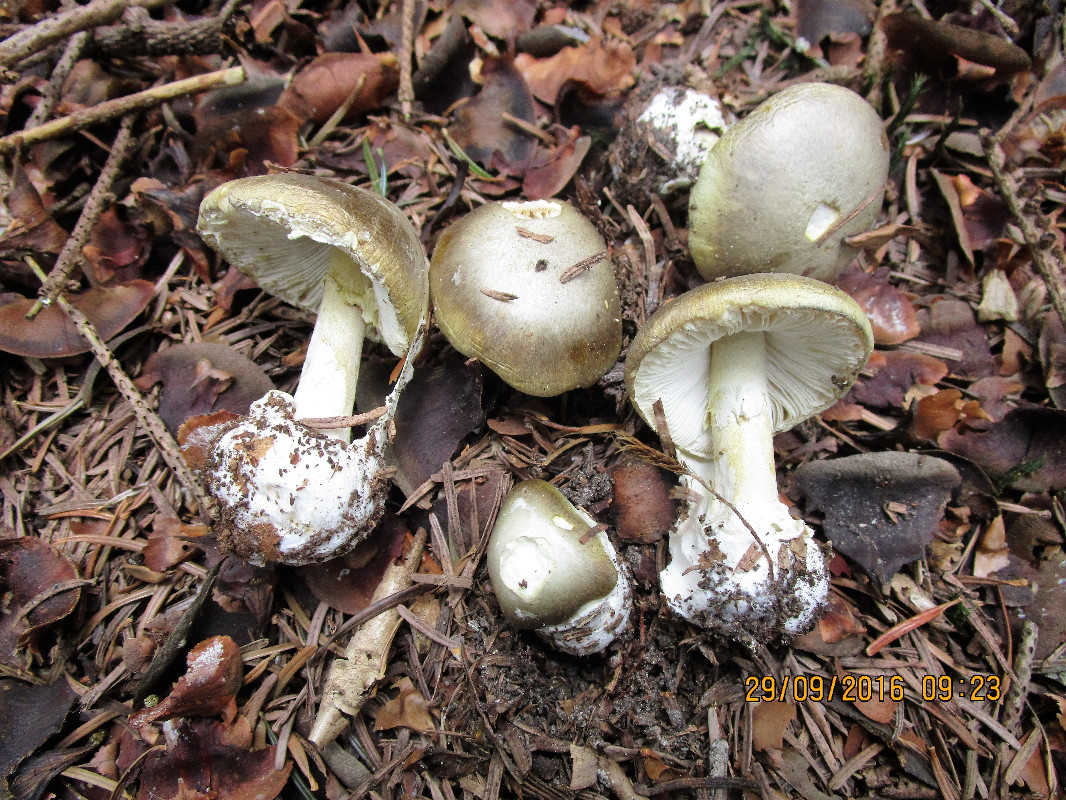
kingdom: Fungi
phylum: Basidiomycota
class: Agaricomycetes
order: Agaricales
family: Amanitaceae
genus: Amanita
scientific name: Amanita phalloides
